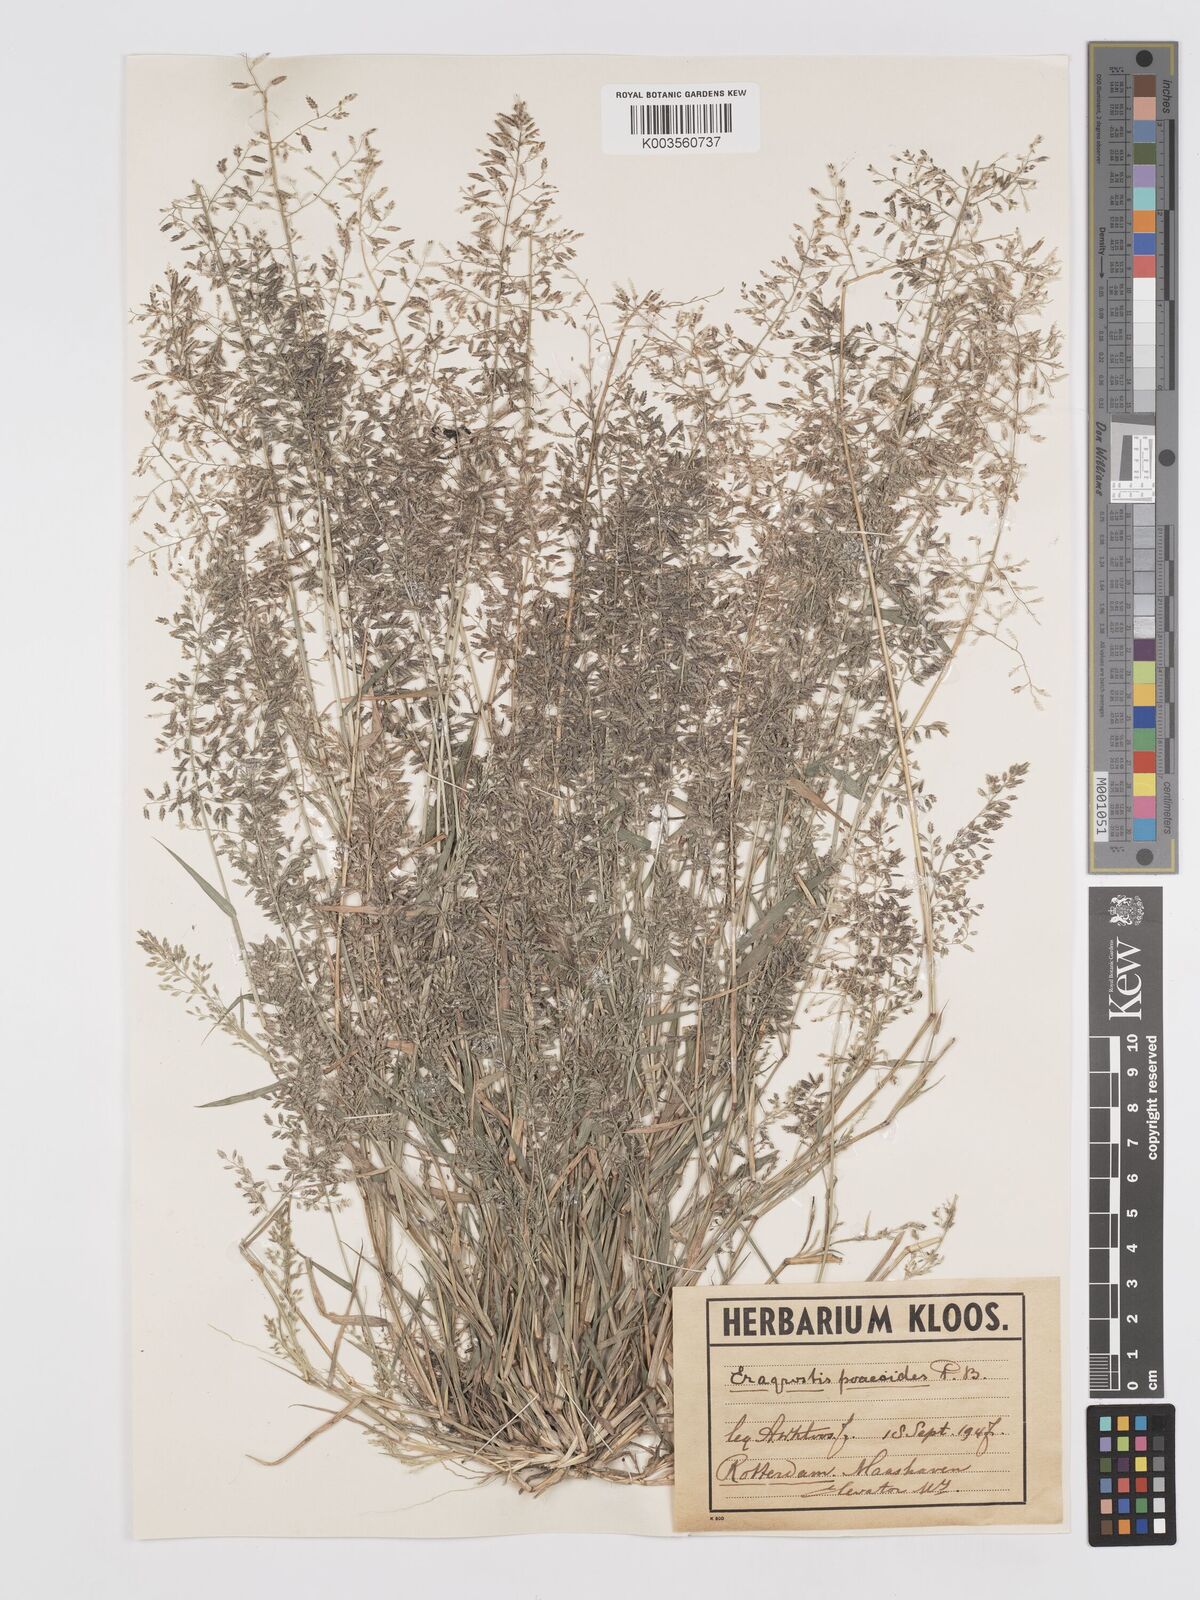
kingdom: Plantae
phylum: Tracheophyta
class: Liliopsida
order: Poales
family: Poaceae
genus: Eragrostis
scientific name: Eragrostis minor
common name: Small love-grass
